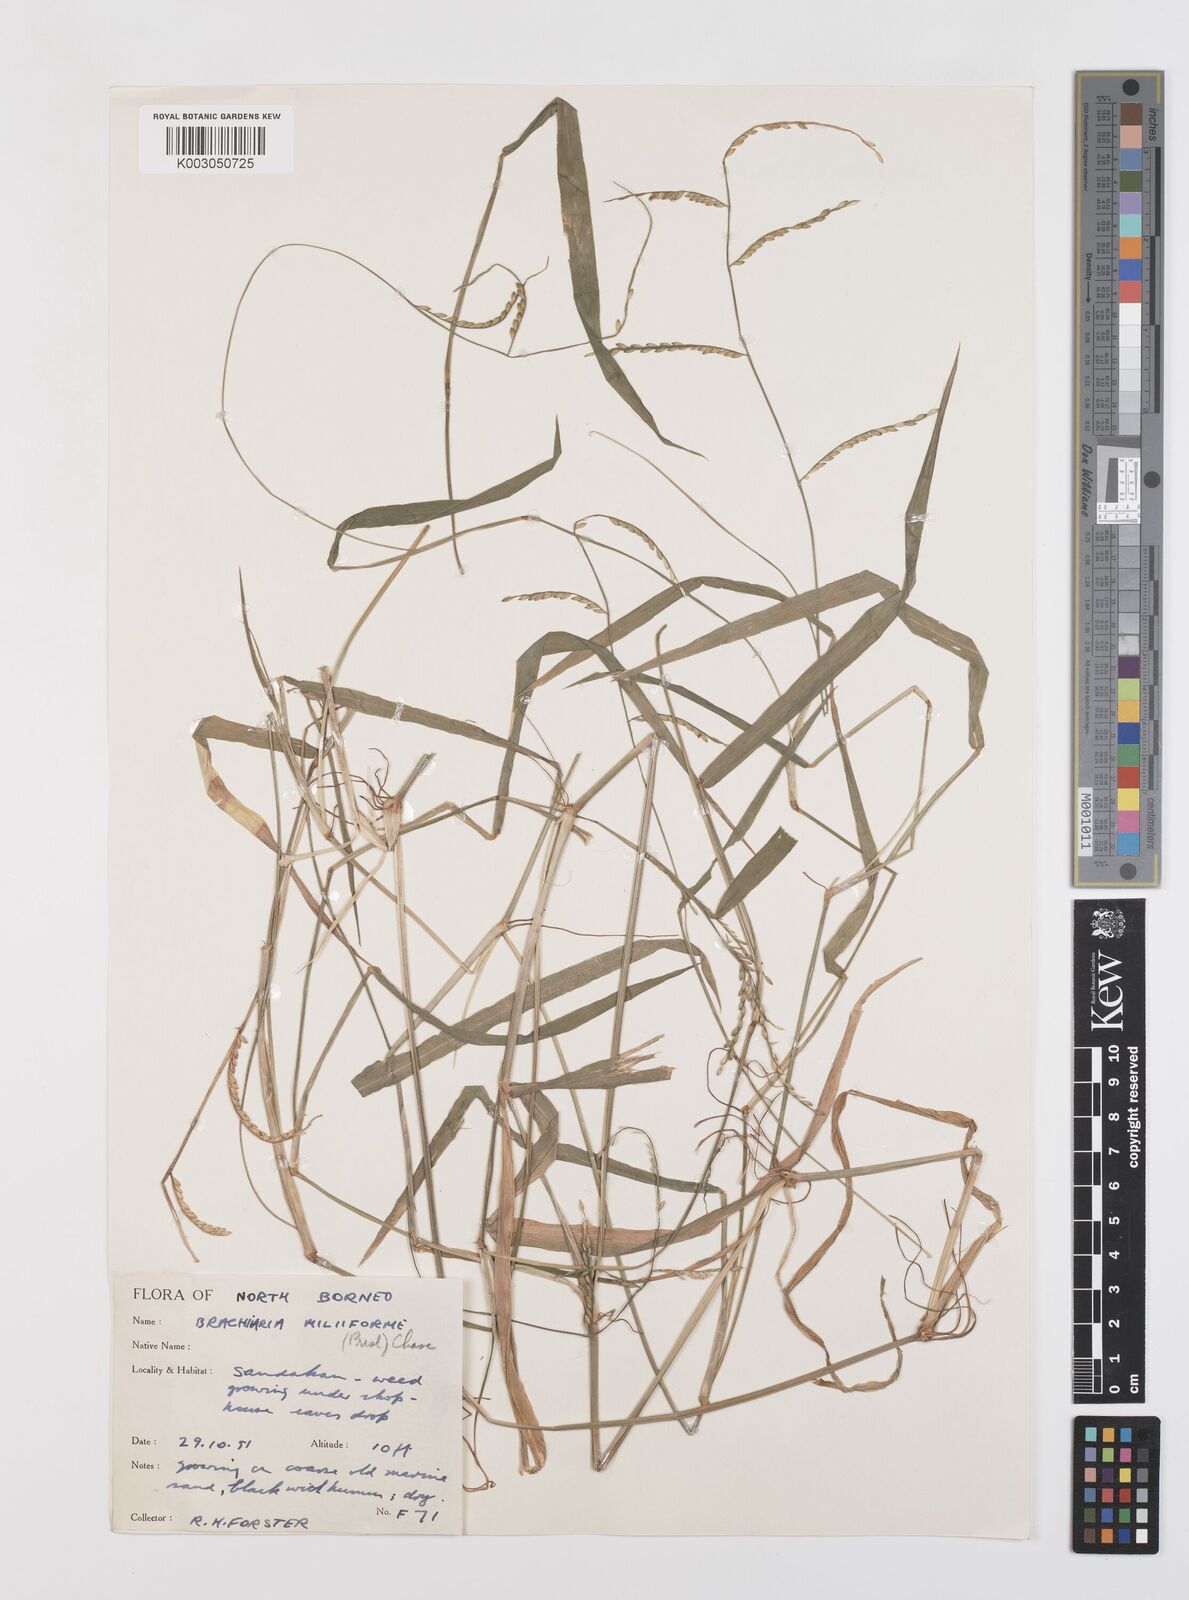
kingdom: Plantae
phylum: Tracheophyta
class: Liliopsida
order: Poales
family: Poaceae
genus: Urochloa
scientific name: Urochloa subquadripara
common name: Armgrass millet
